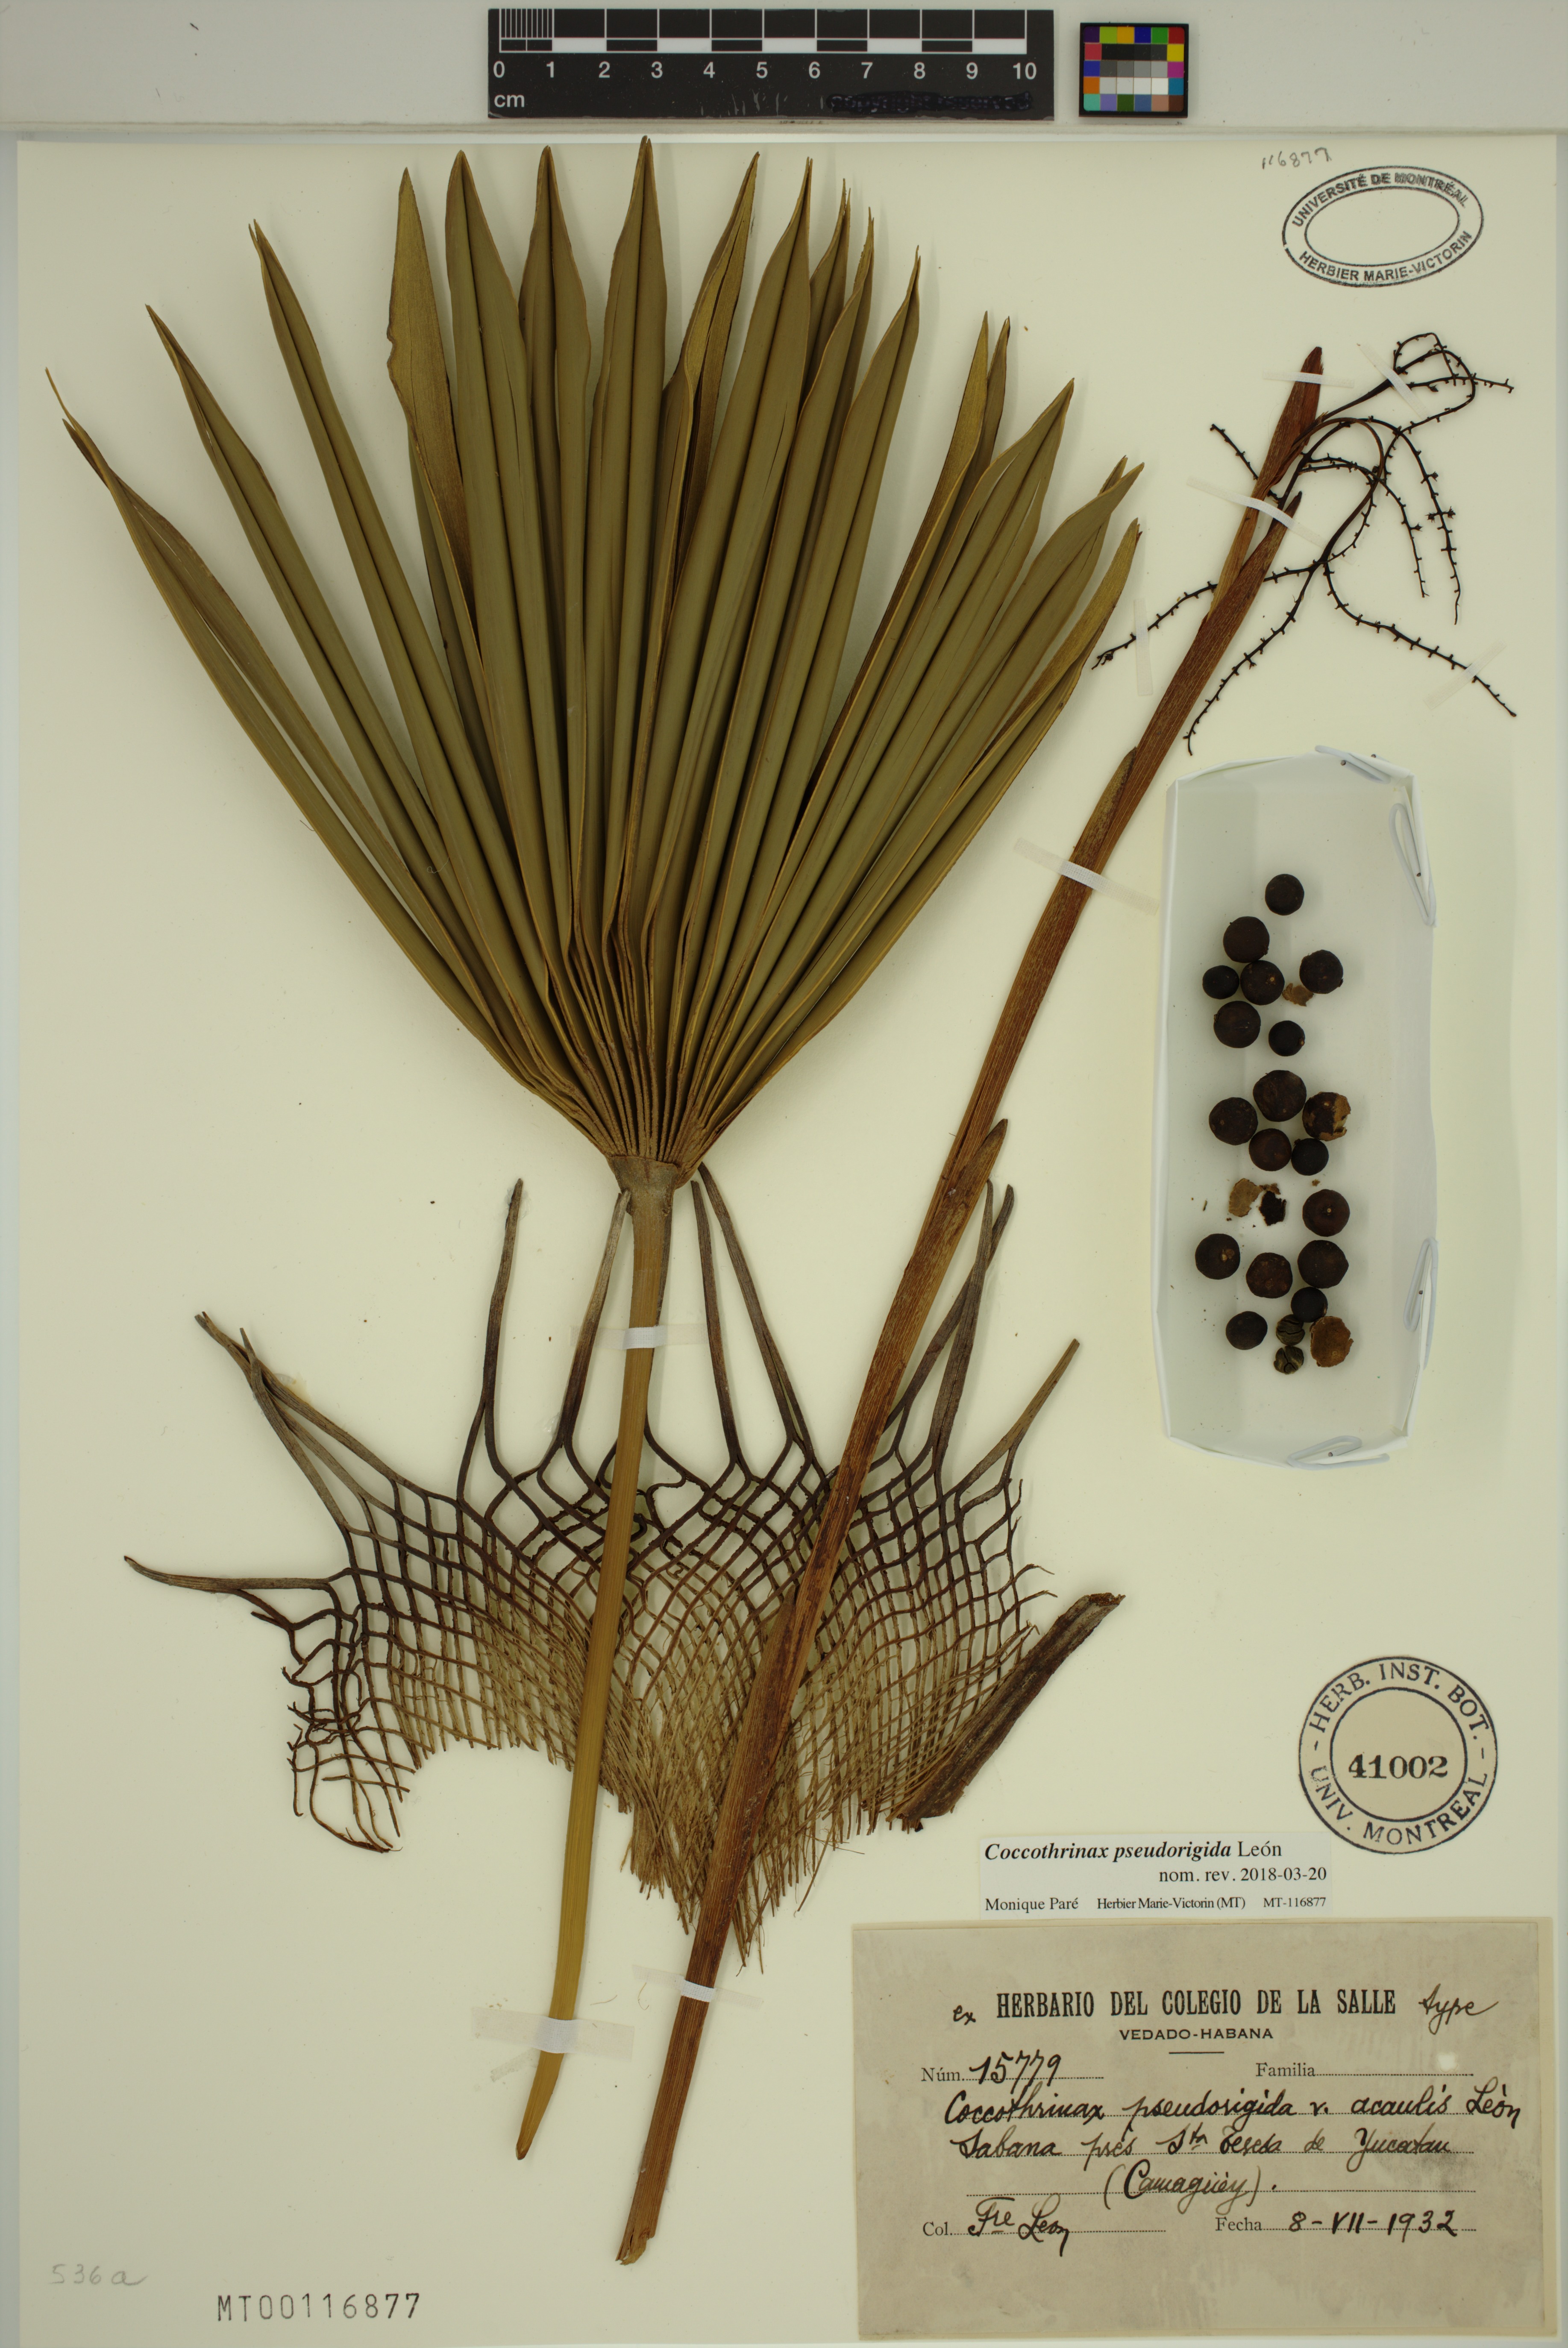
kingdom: Plantae
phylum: Tracheophyta
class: Liliopsida
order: Arecales
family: Arecaceae
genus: Coccothrinax
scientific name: Coccothrinax pseudorigida
